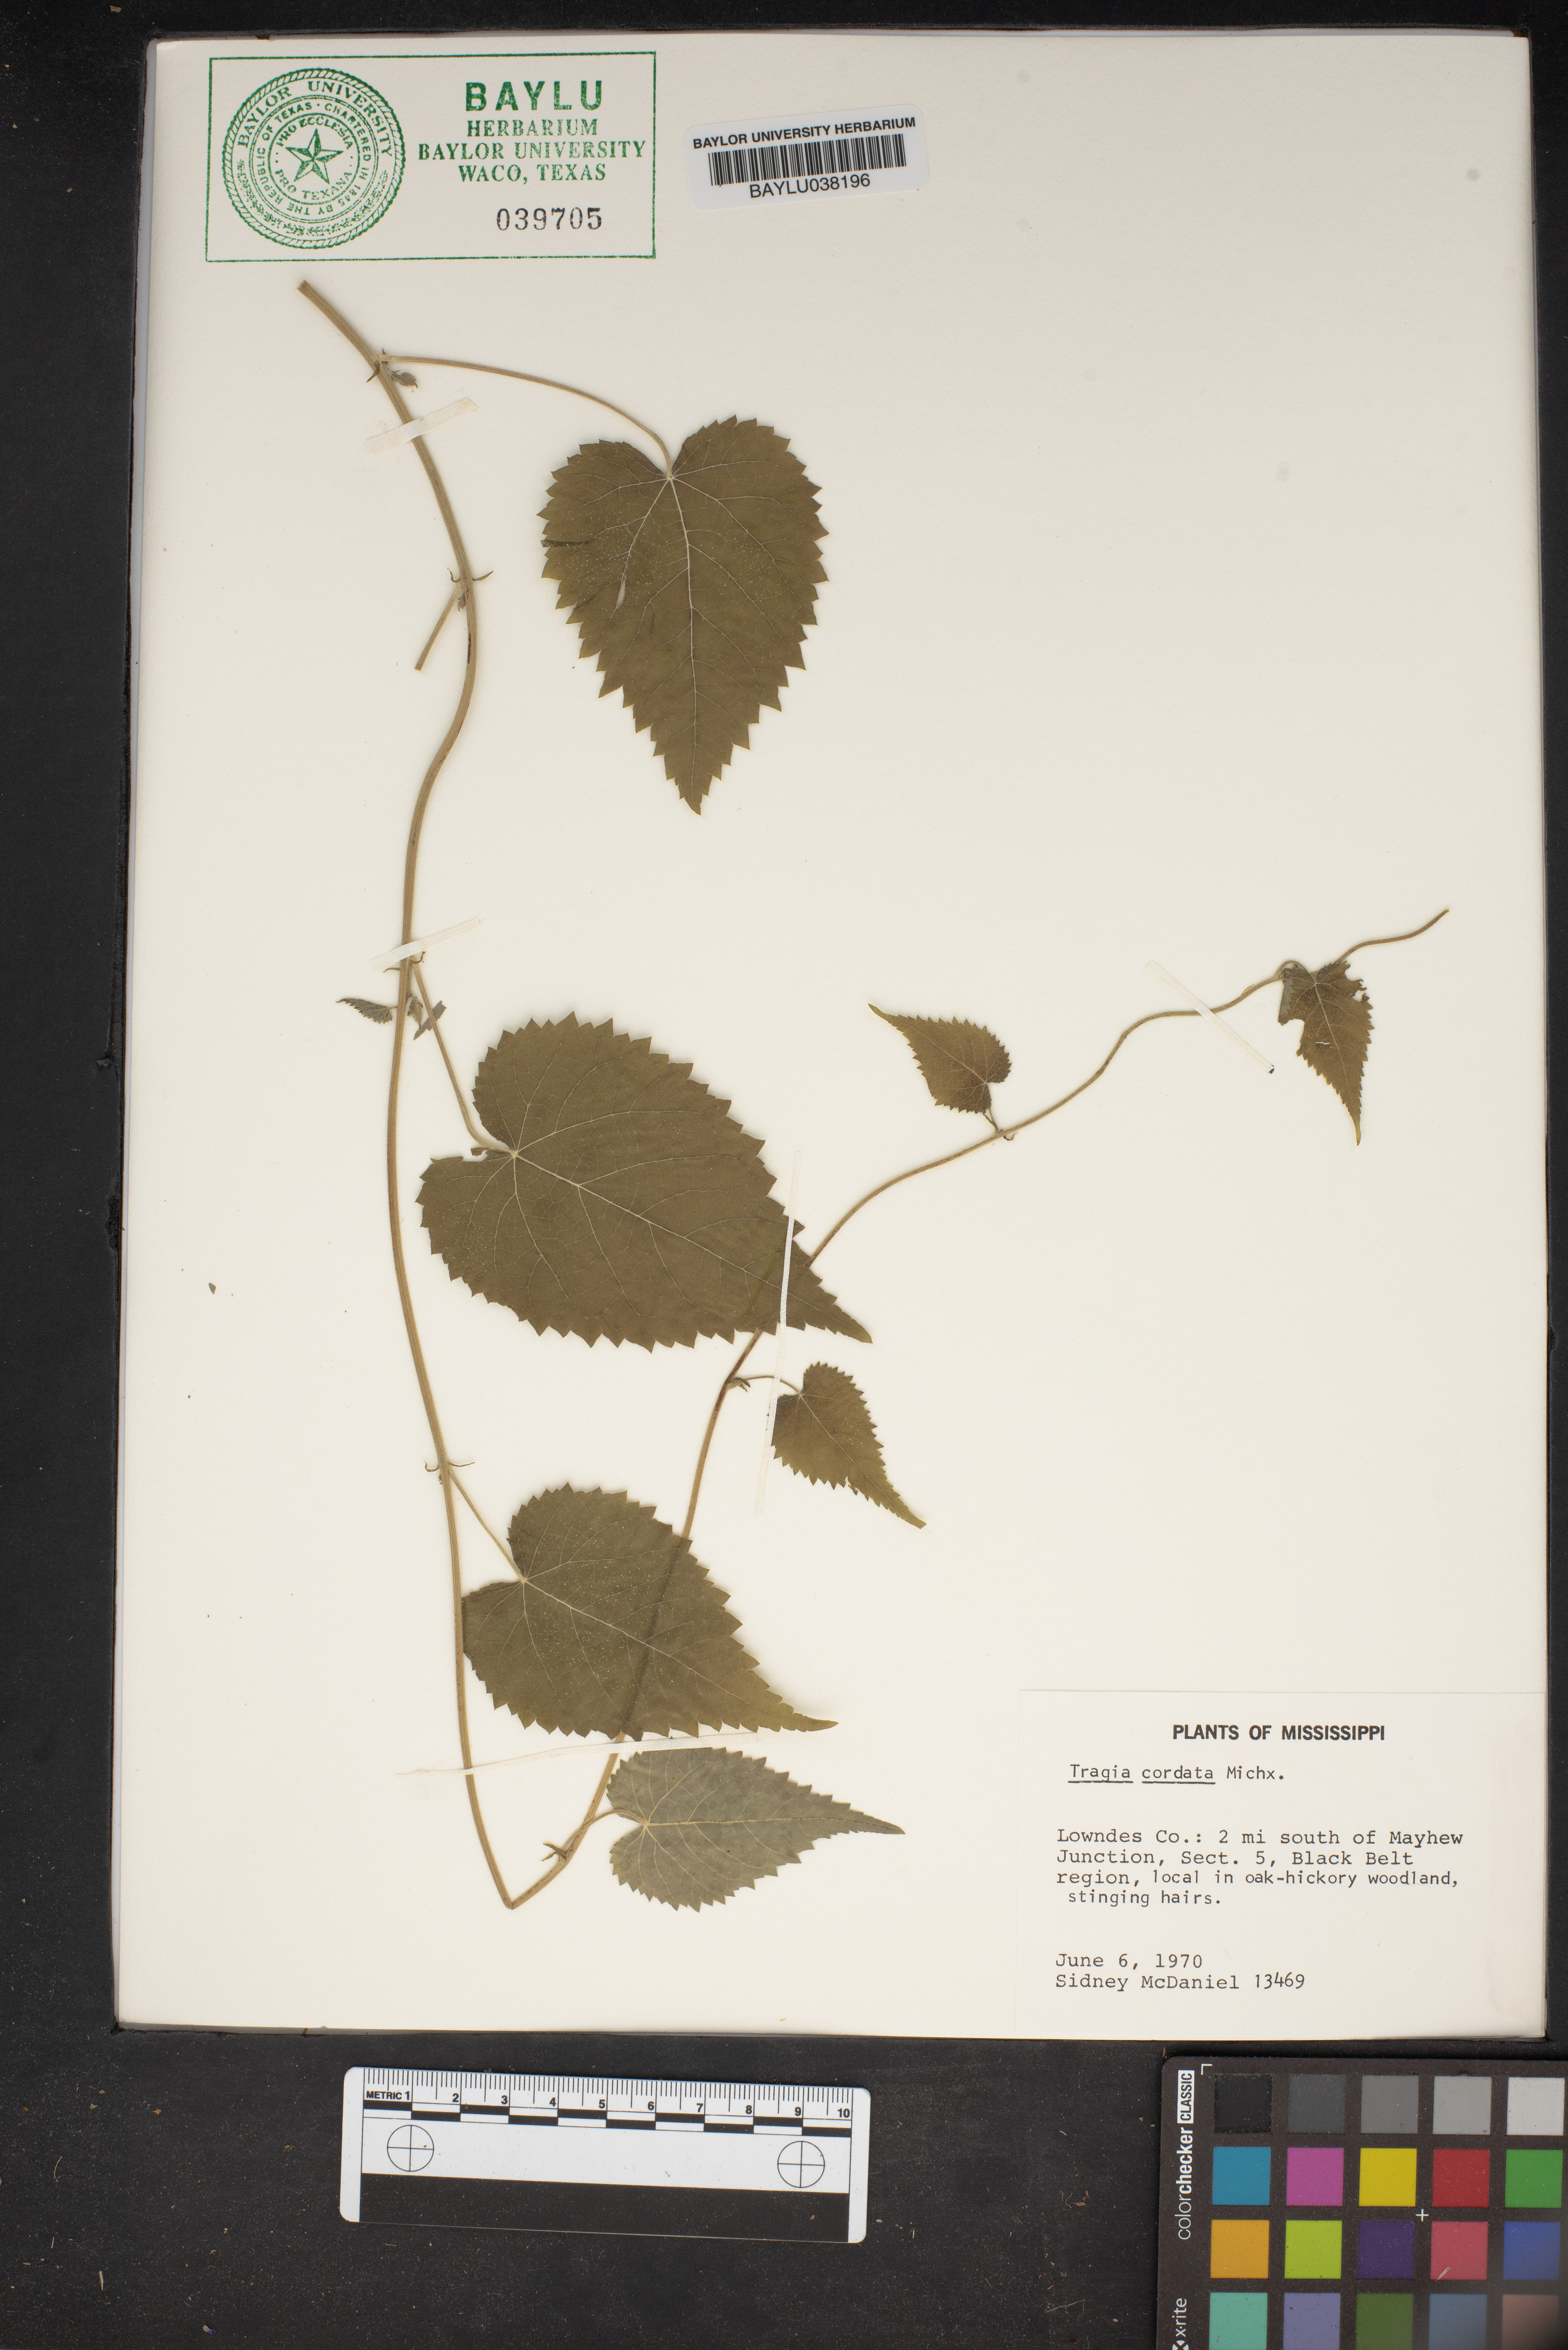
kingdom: Plantae
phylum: Tracheophyta
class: Magnoliopsida
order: Malpighiales
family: Euphorbiaceae
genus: Tragia
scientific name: Tragia cordata
